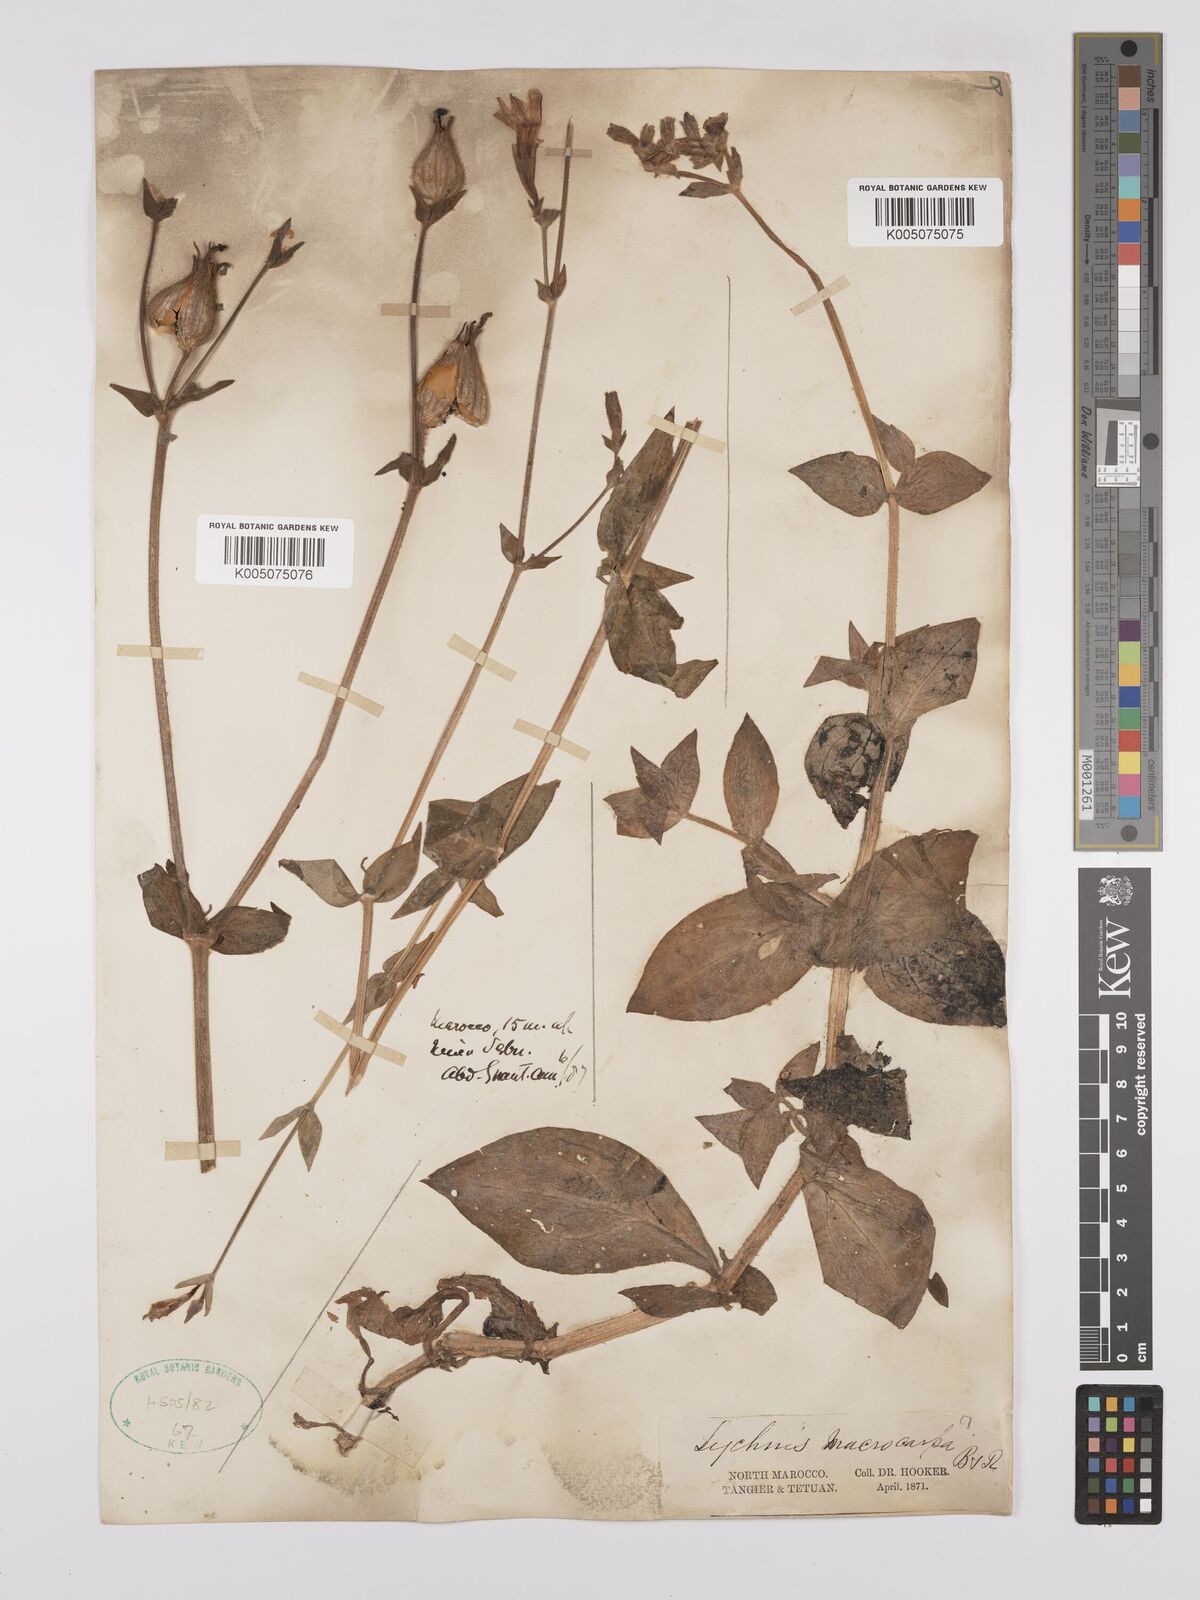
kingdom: Plantae
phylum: Tracheophyta
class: Magnoliopsida
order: Caryophyllales
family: Caryophyllaceae
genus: Silene
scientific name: Silene
